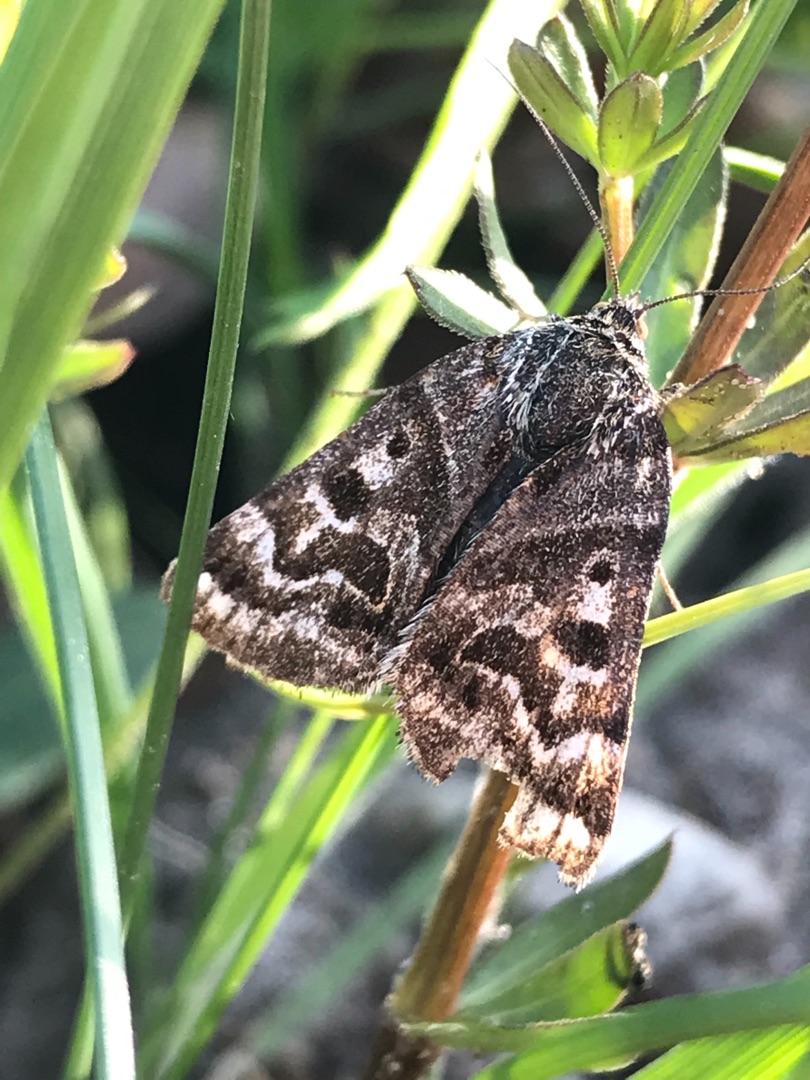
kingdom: Animalia
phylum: Arthropoda
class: Insecta
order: Lepidoptera
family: Erebidae
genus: Callistege
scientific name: Callistege mi
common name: Marmoreret kløverugle
